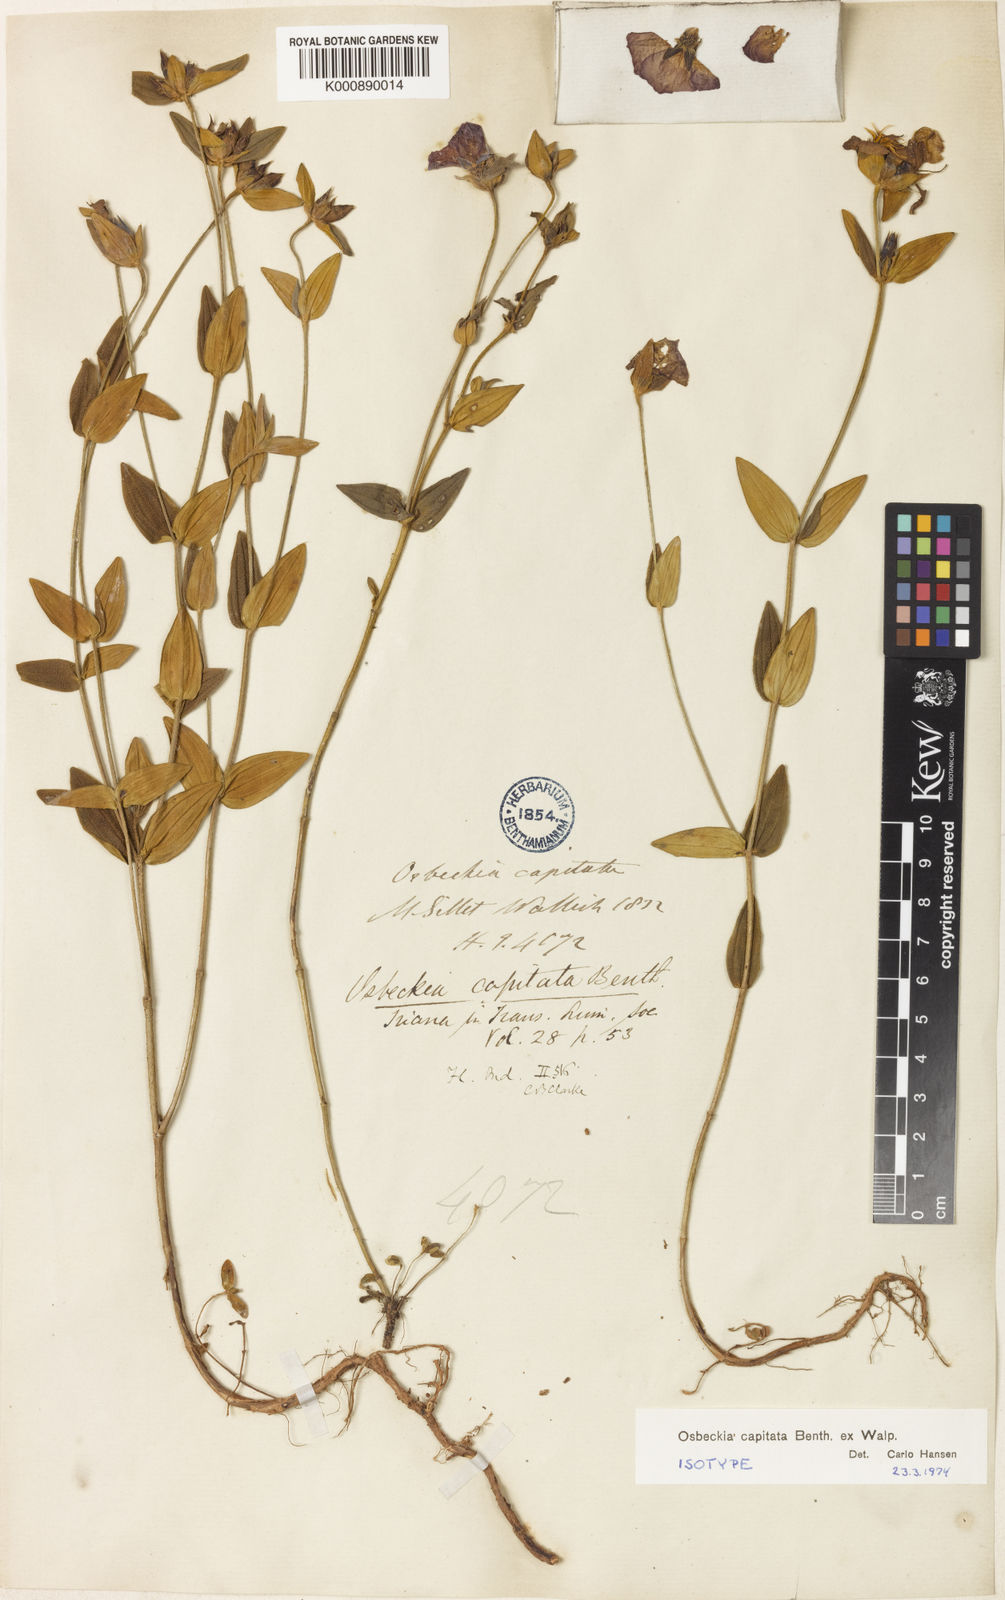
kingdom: Plantae
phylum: Tracheophyta
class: Magnoliopsida
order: Myrtales
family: Melastomataceae
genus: Osbeckia
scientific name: Osbeckia capitata
